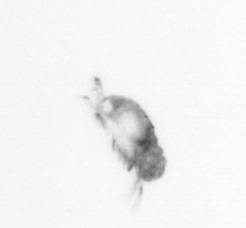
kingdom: Animalia
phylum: Arthropoda
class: Copepoda
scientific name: Copepoda
